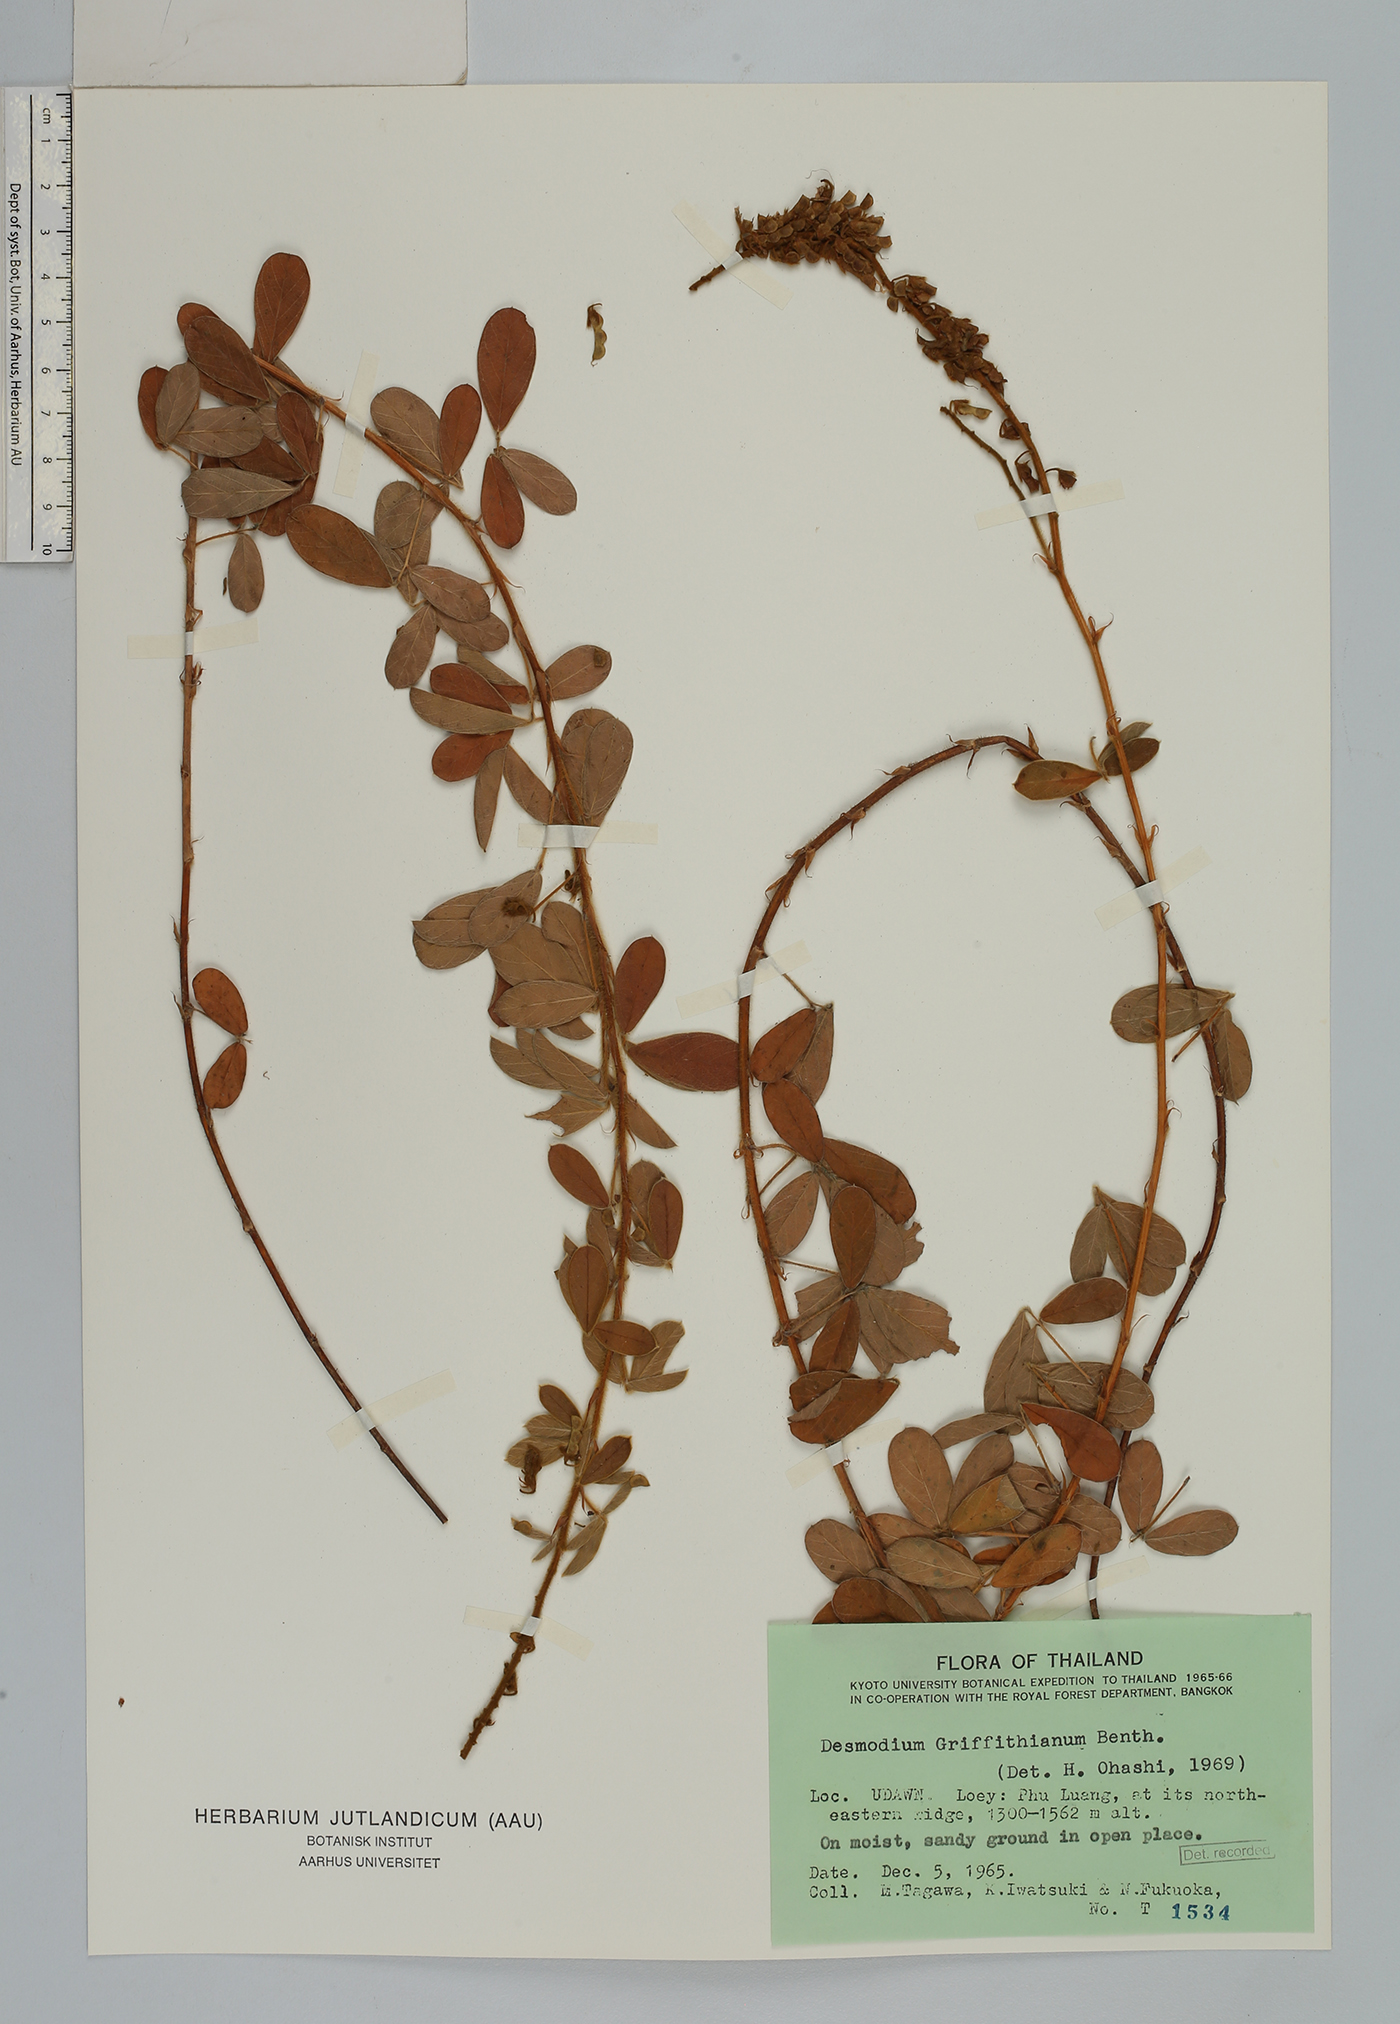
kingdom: Plantae
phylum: Tracheophyta
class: Magnoliopsida
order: Fabales
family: Fabaceae
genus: Grona
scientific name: Grona griffithiana
